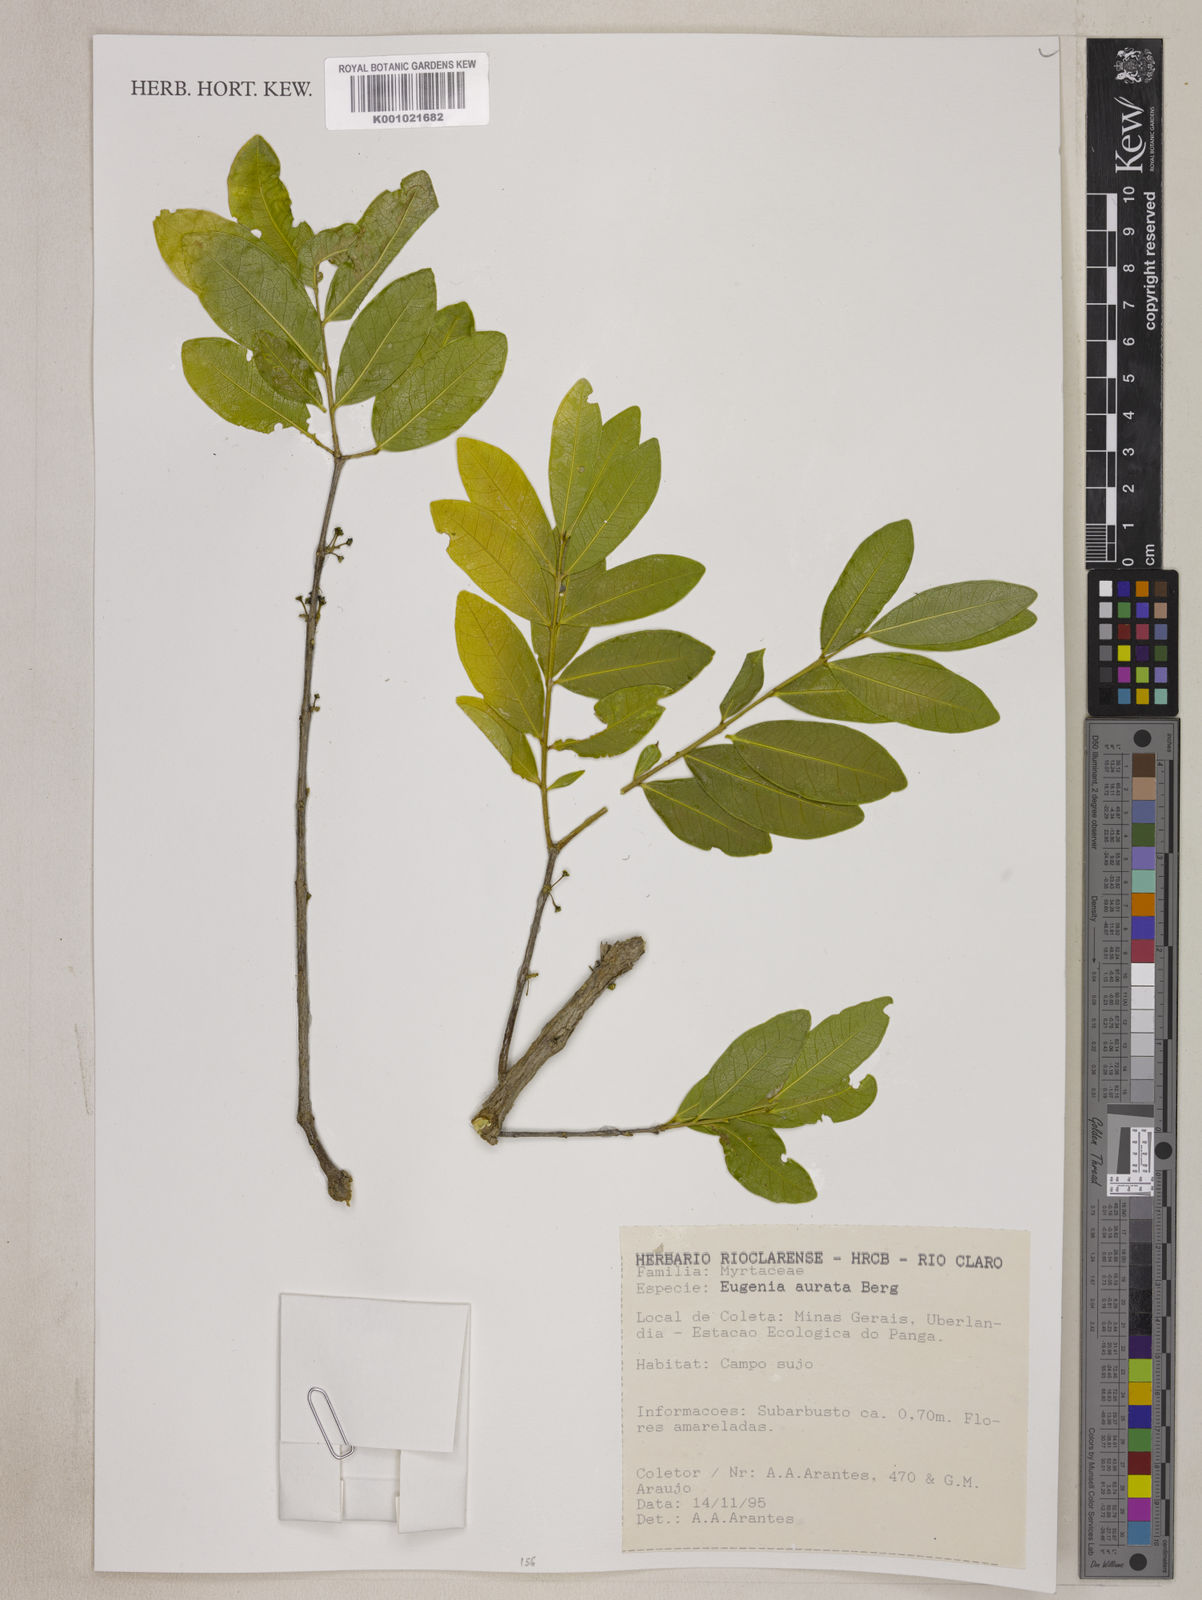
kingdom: Plantae
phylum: Tracheophyta
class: Magnoliopsida
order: Myrtales
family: Myrtaceae
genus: Eugenia
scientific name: Eugenia aurata
